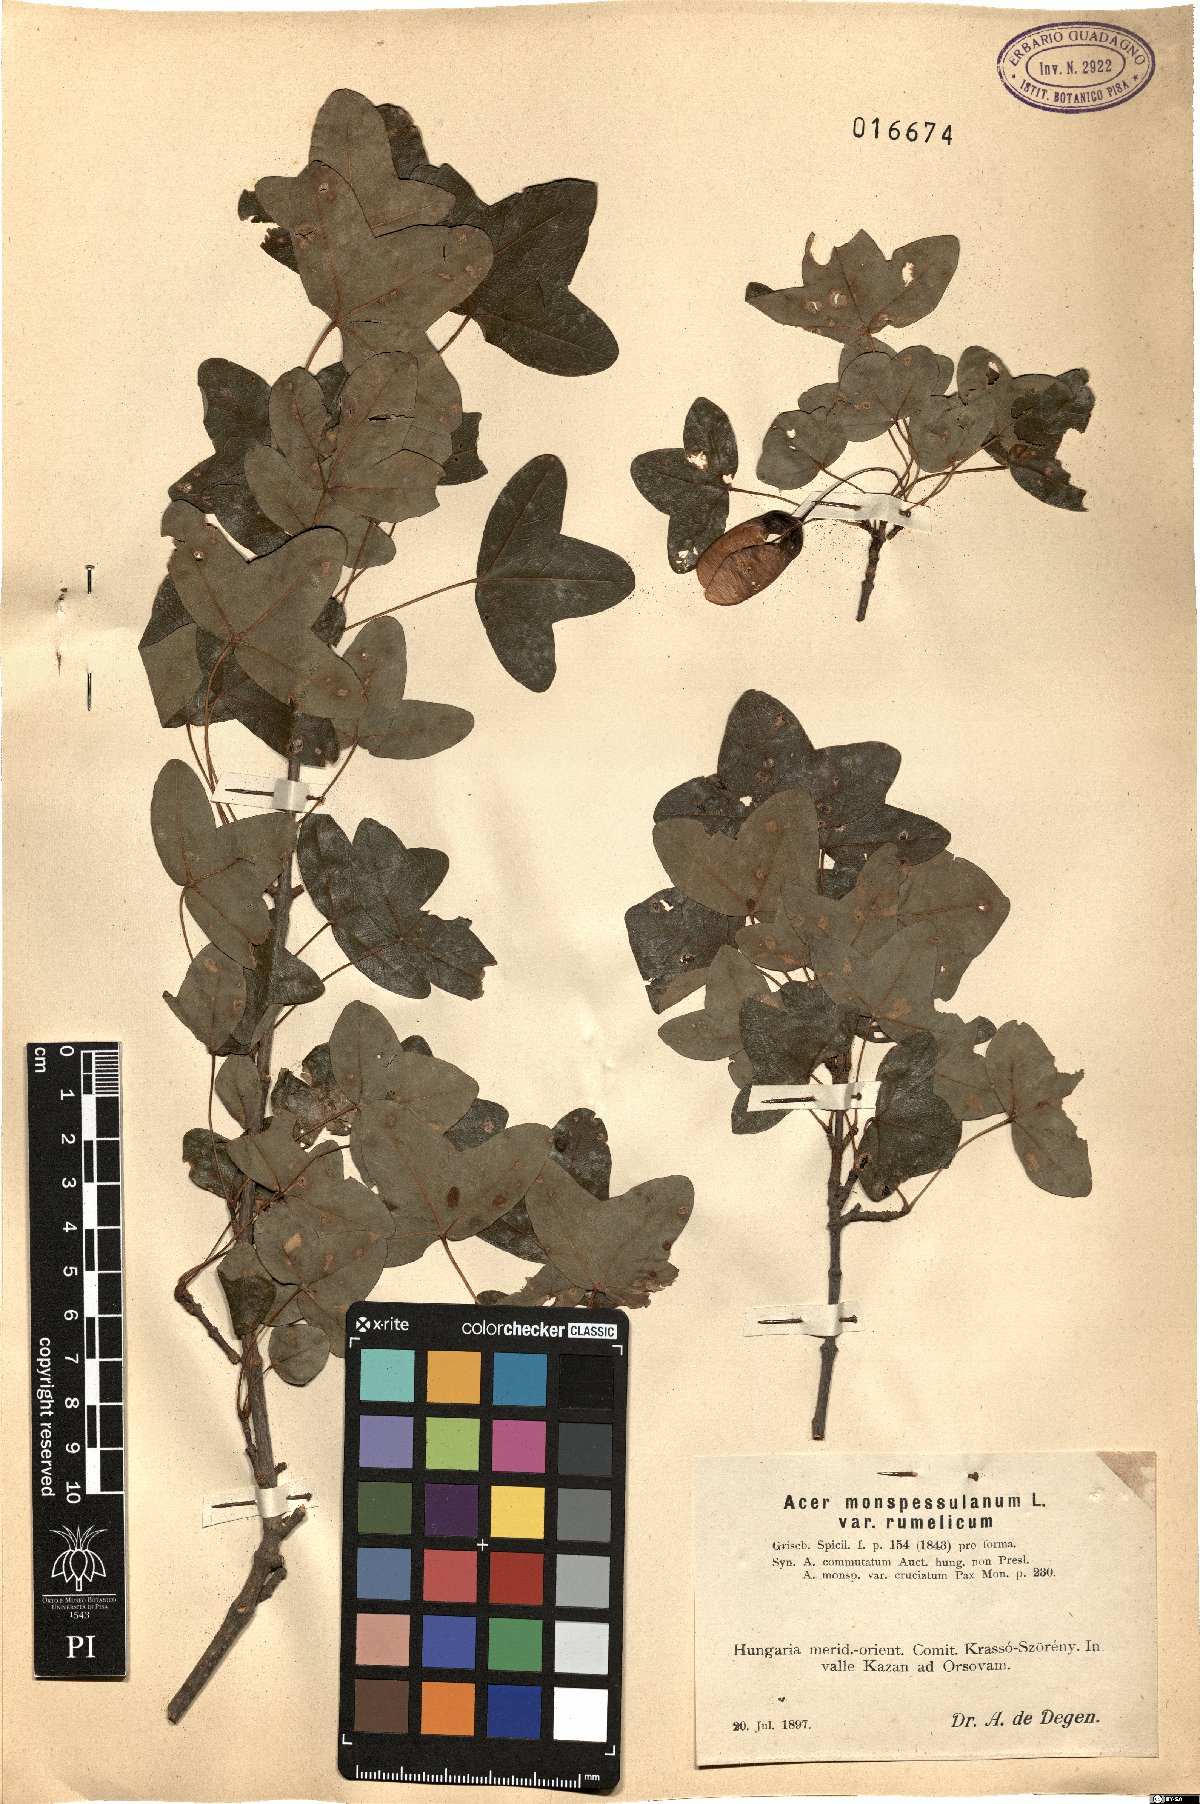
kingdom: Plantae
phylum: Tracheophyta
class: Magnoliopsida
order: Sapindales
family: Sapindaceae
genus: Acer
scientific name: Acer monspessulanum
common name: Montpellier maple
